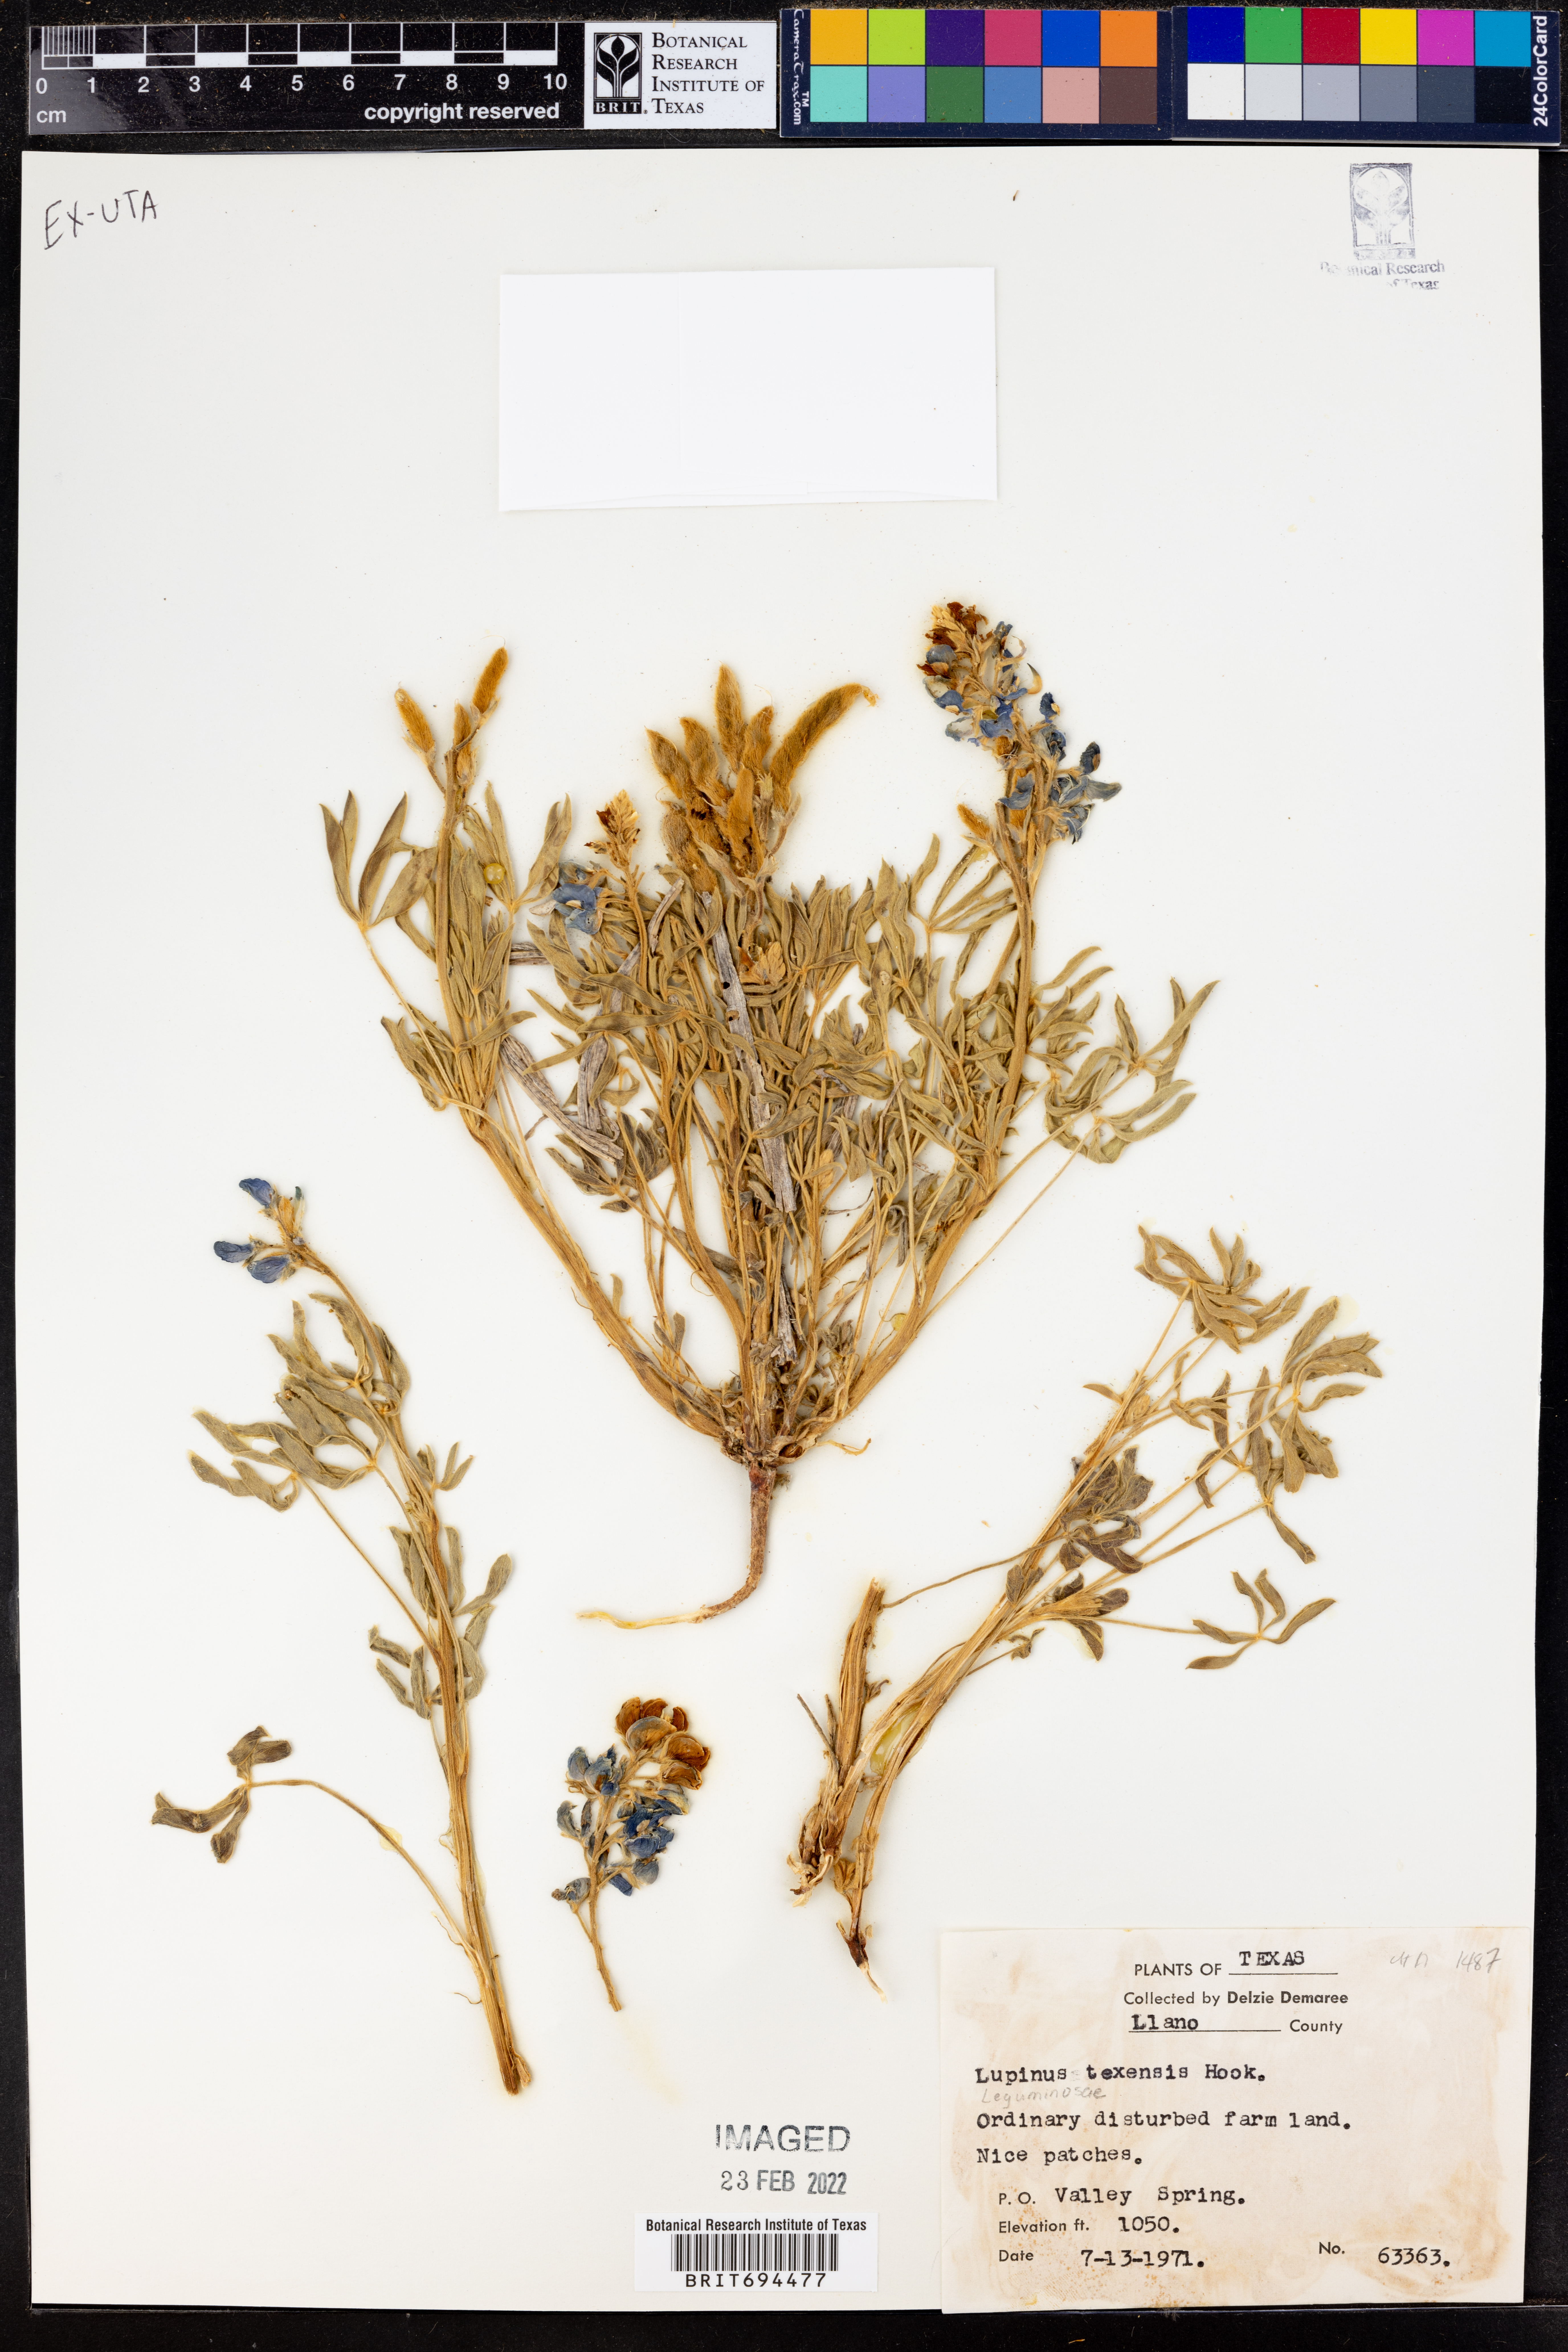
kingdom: Plantae
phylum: Tracheophyta
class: Magnoliopsida
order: Fabales
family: Fabaceae
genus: Lupinus
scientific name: Lupinus texensis
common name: Texas bluebonnet
